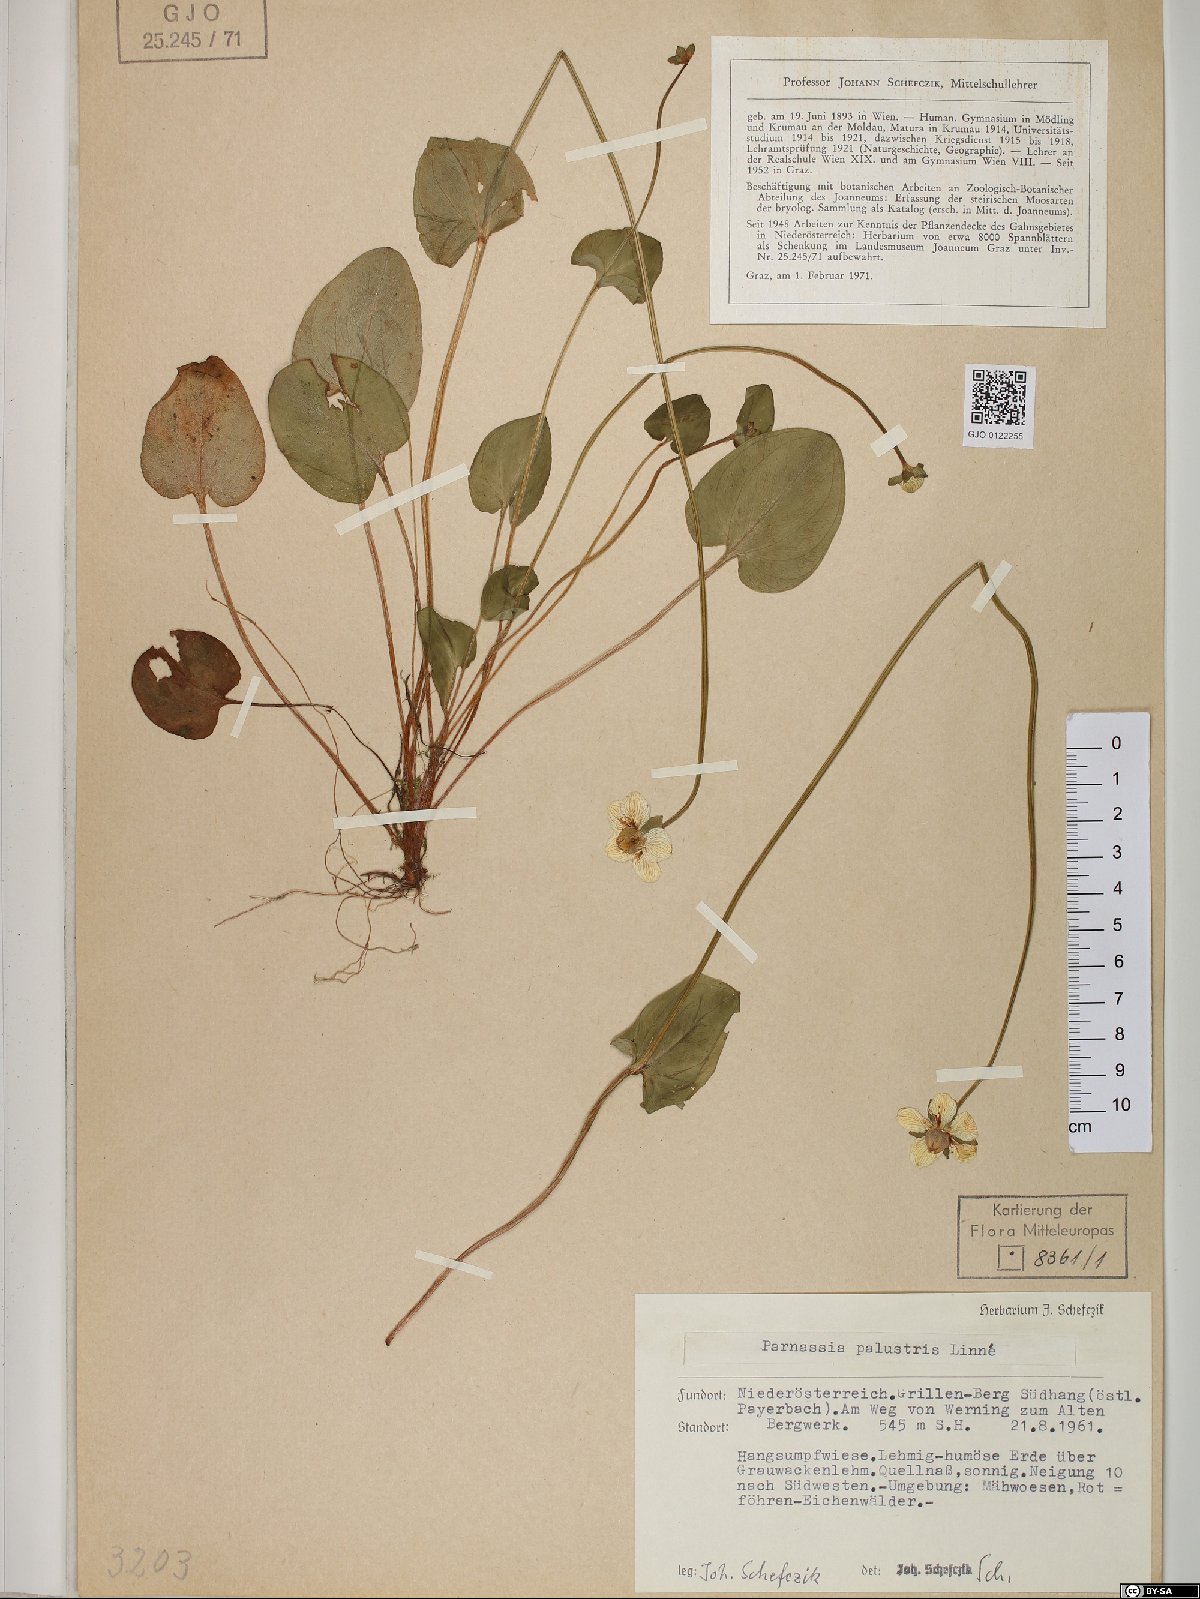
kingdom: Plantae
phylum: Tracheophyta
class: Magnoliopsida
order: Celastrales
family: Parnassiaceae
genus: Parnassia
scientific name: Parnassia palustris
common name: Grass-of-parnassus
